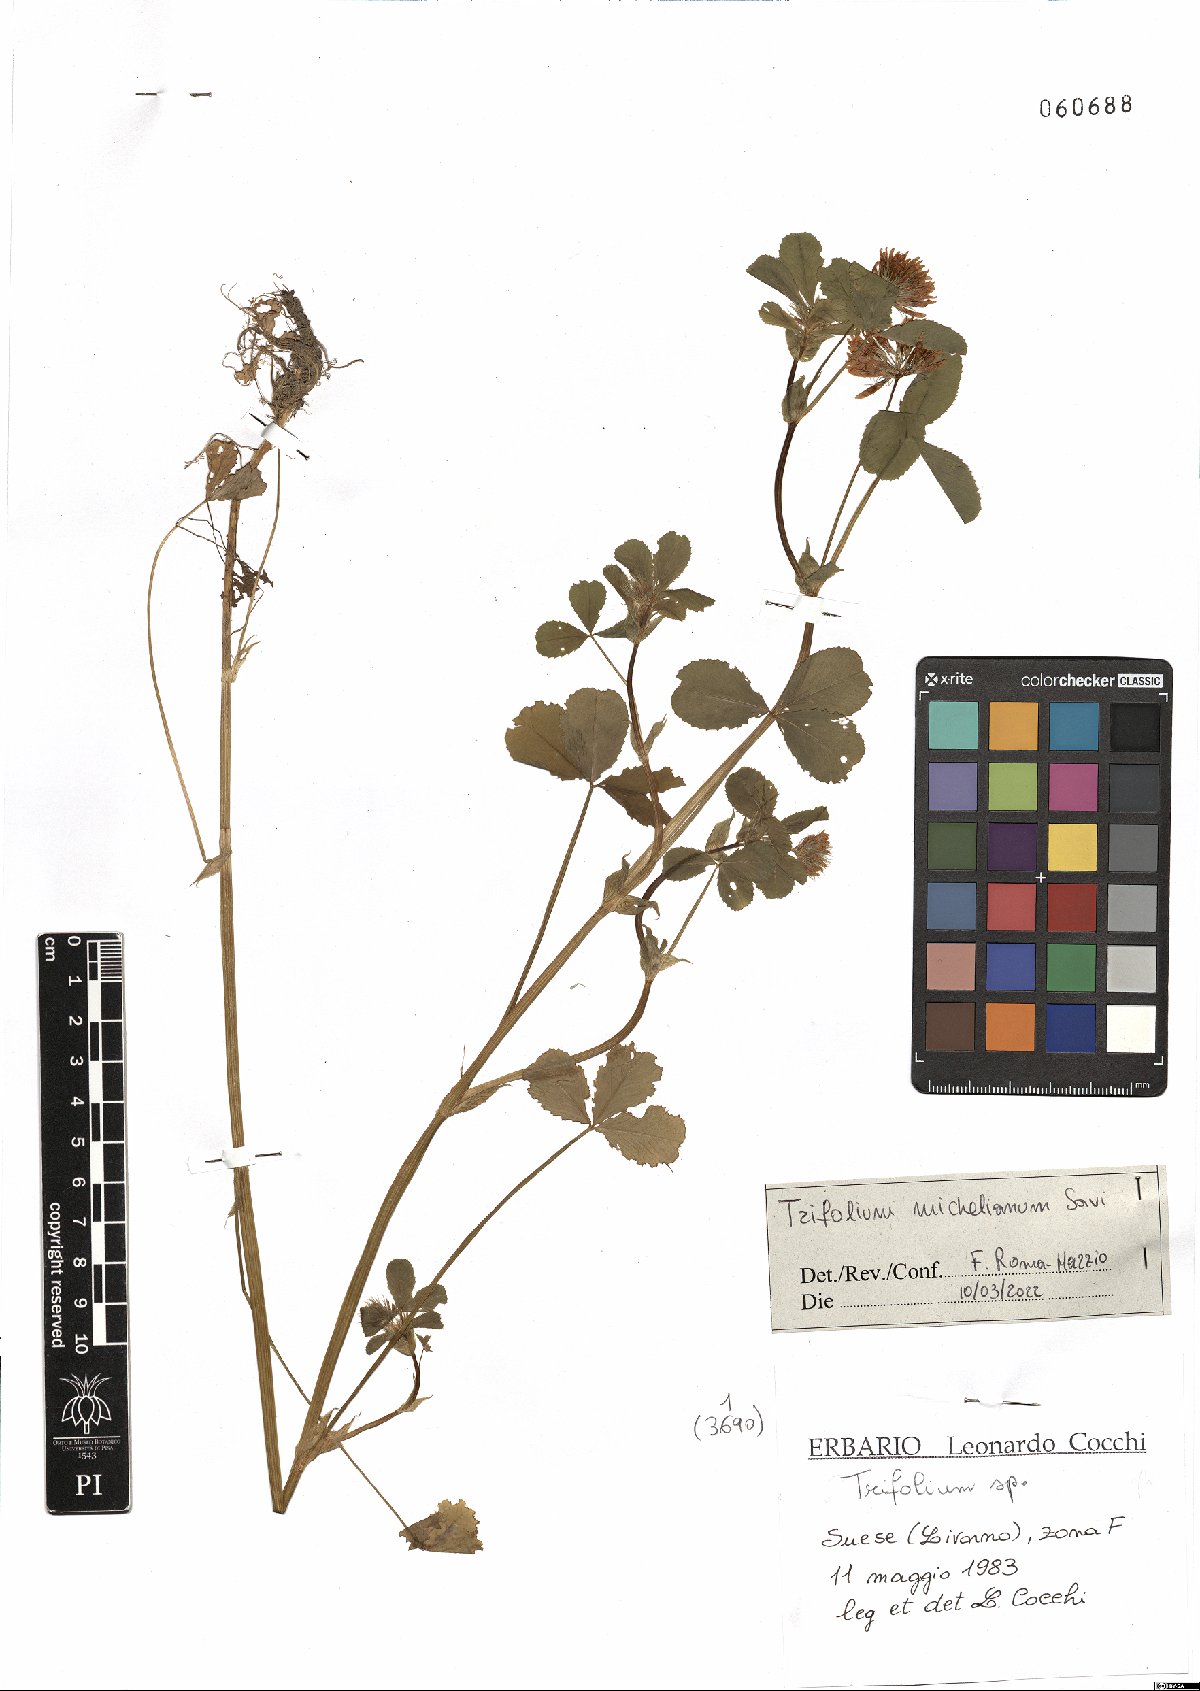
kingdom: Plantae
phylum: Tracheophyta
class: Magnoliopsida
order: Fabales
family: Fabaceae
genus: Trifolium
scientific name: Trifolium michelianum
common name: Bigflower clover
